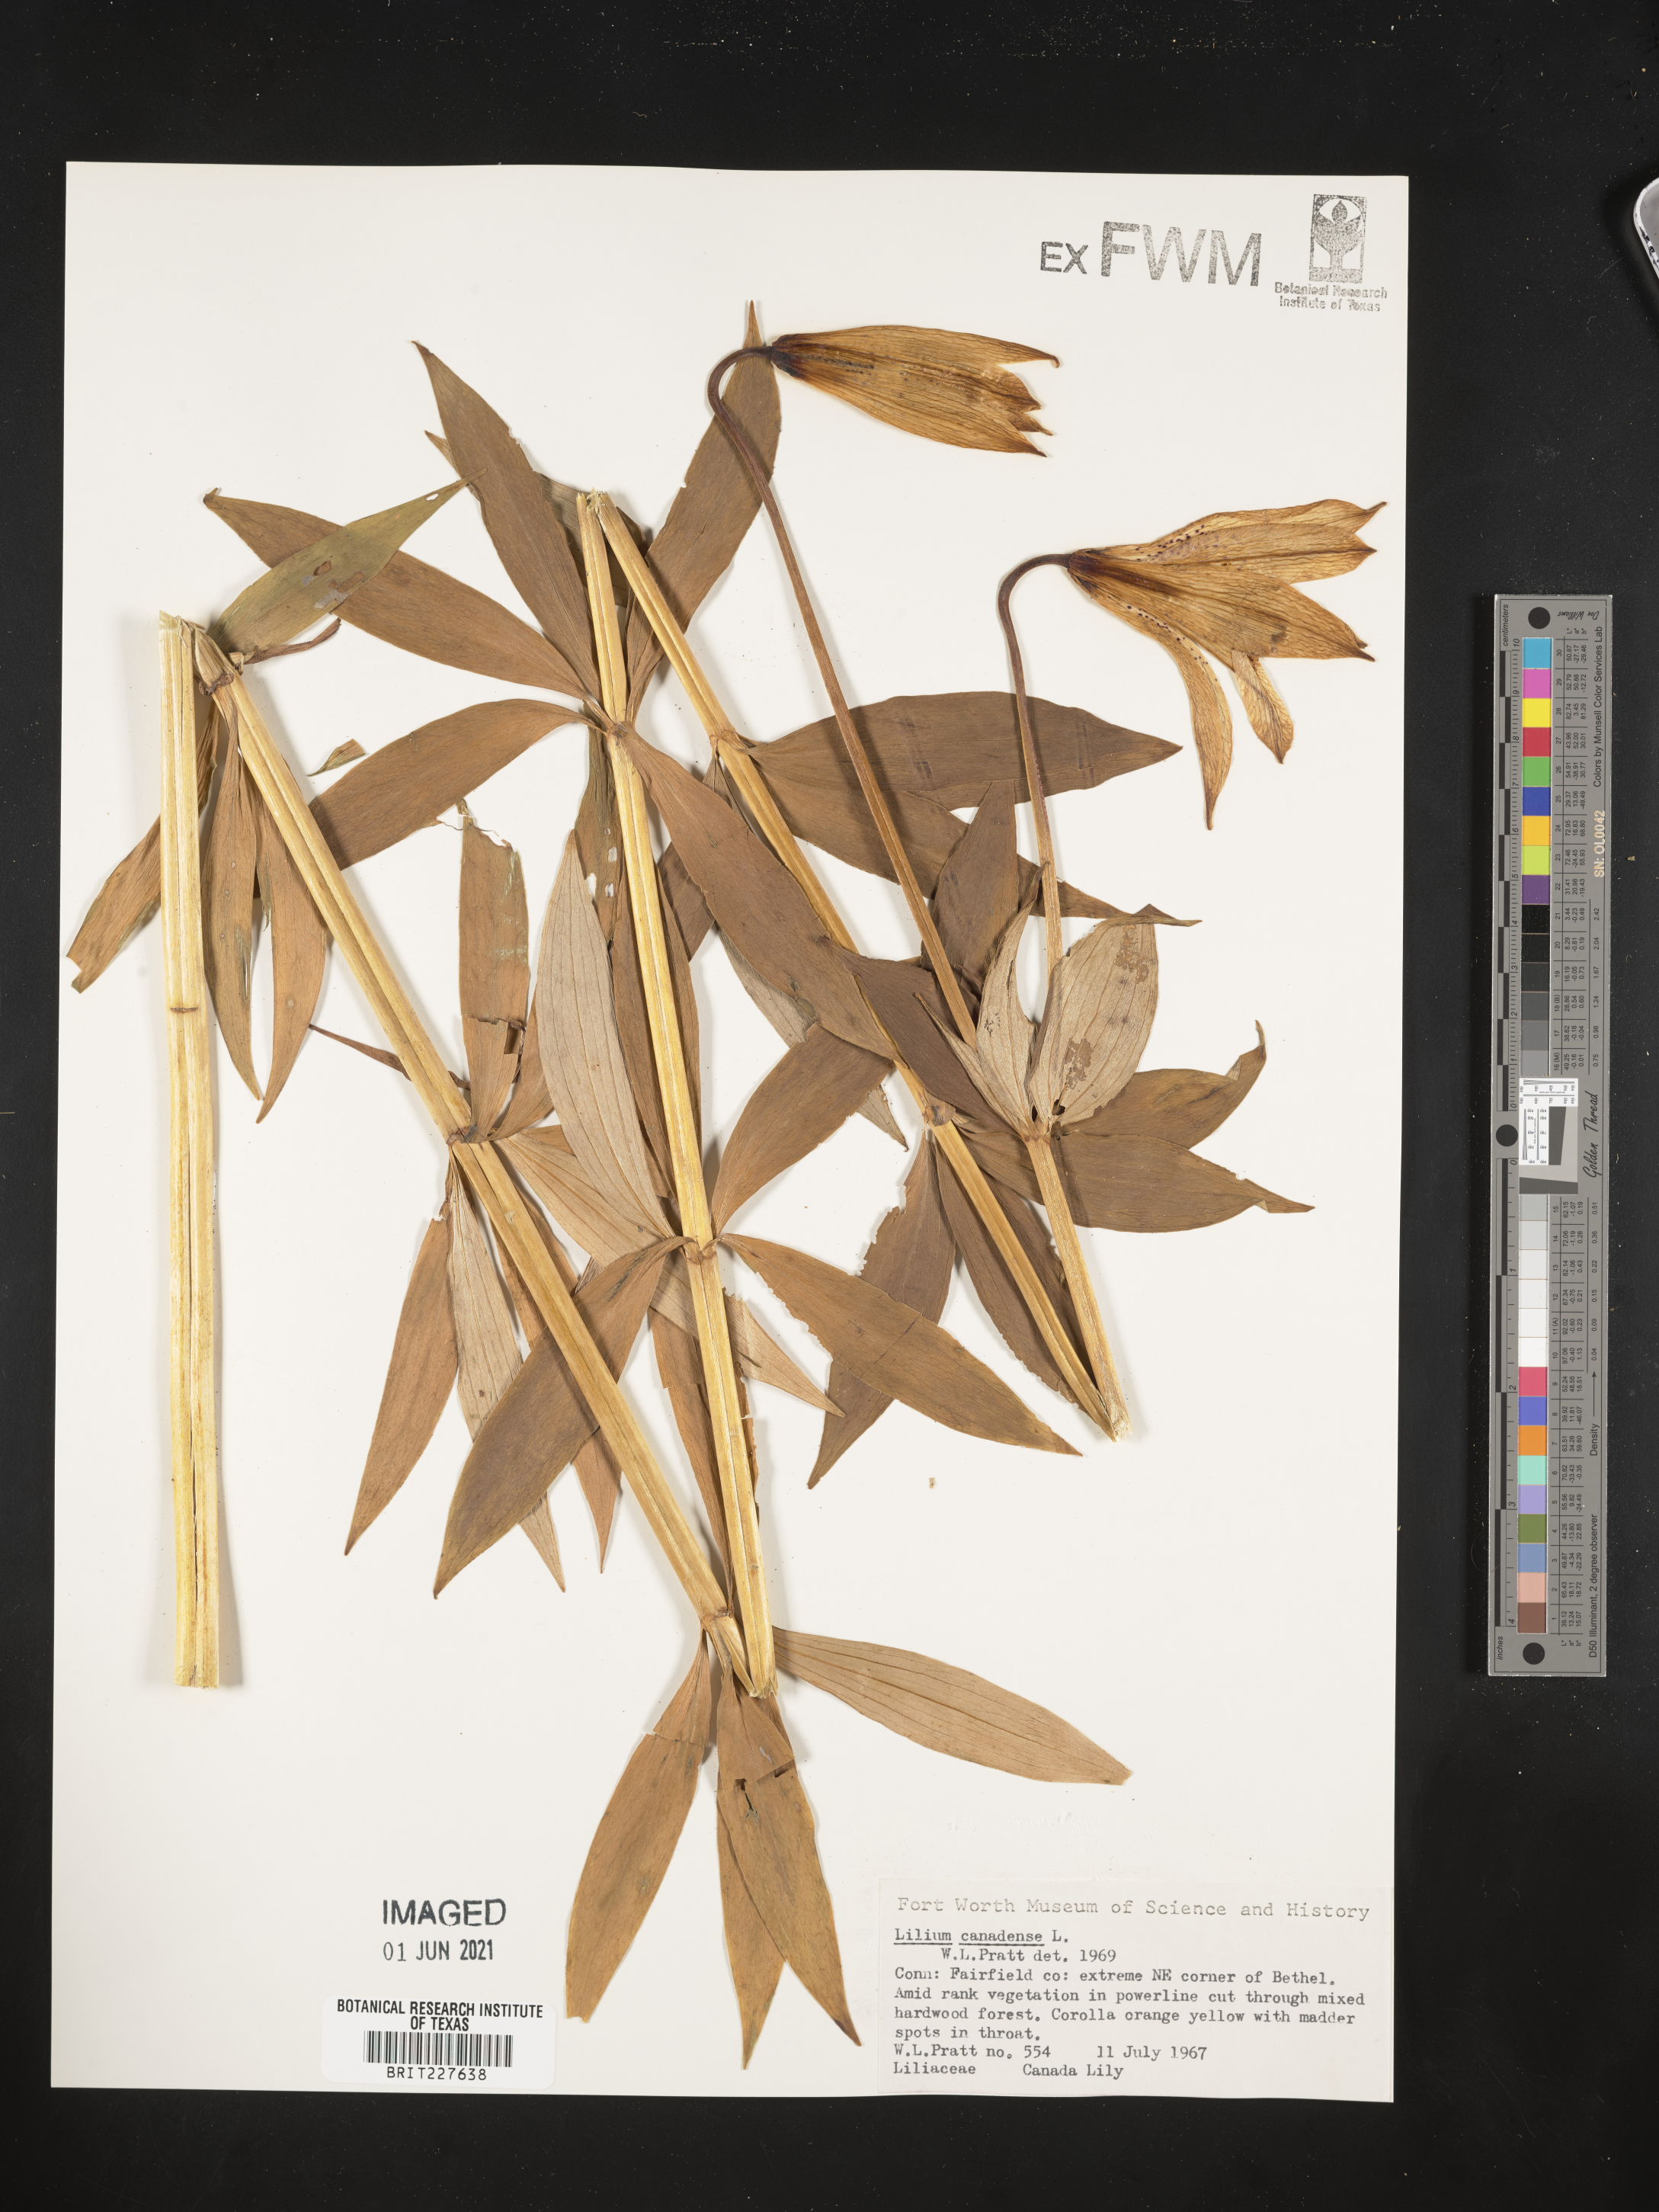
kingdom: Plantae
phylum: Tracheophyta
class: Liliopsida
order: Liliales
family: Liliaceae
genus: Lilium
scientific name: Lilium canadense
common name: Canada lily
